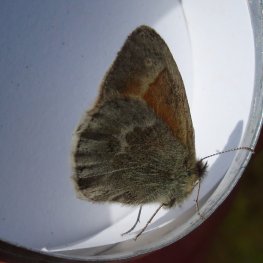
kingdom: Animalia
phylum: Arthropoda
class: Insecta
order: Lepidoptera
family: Nymphalidae
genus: Coenonympha
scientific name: Coenonympha tullia
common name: Large Heath
